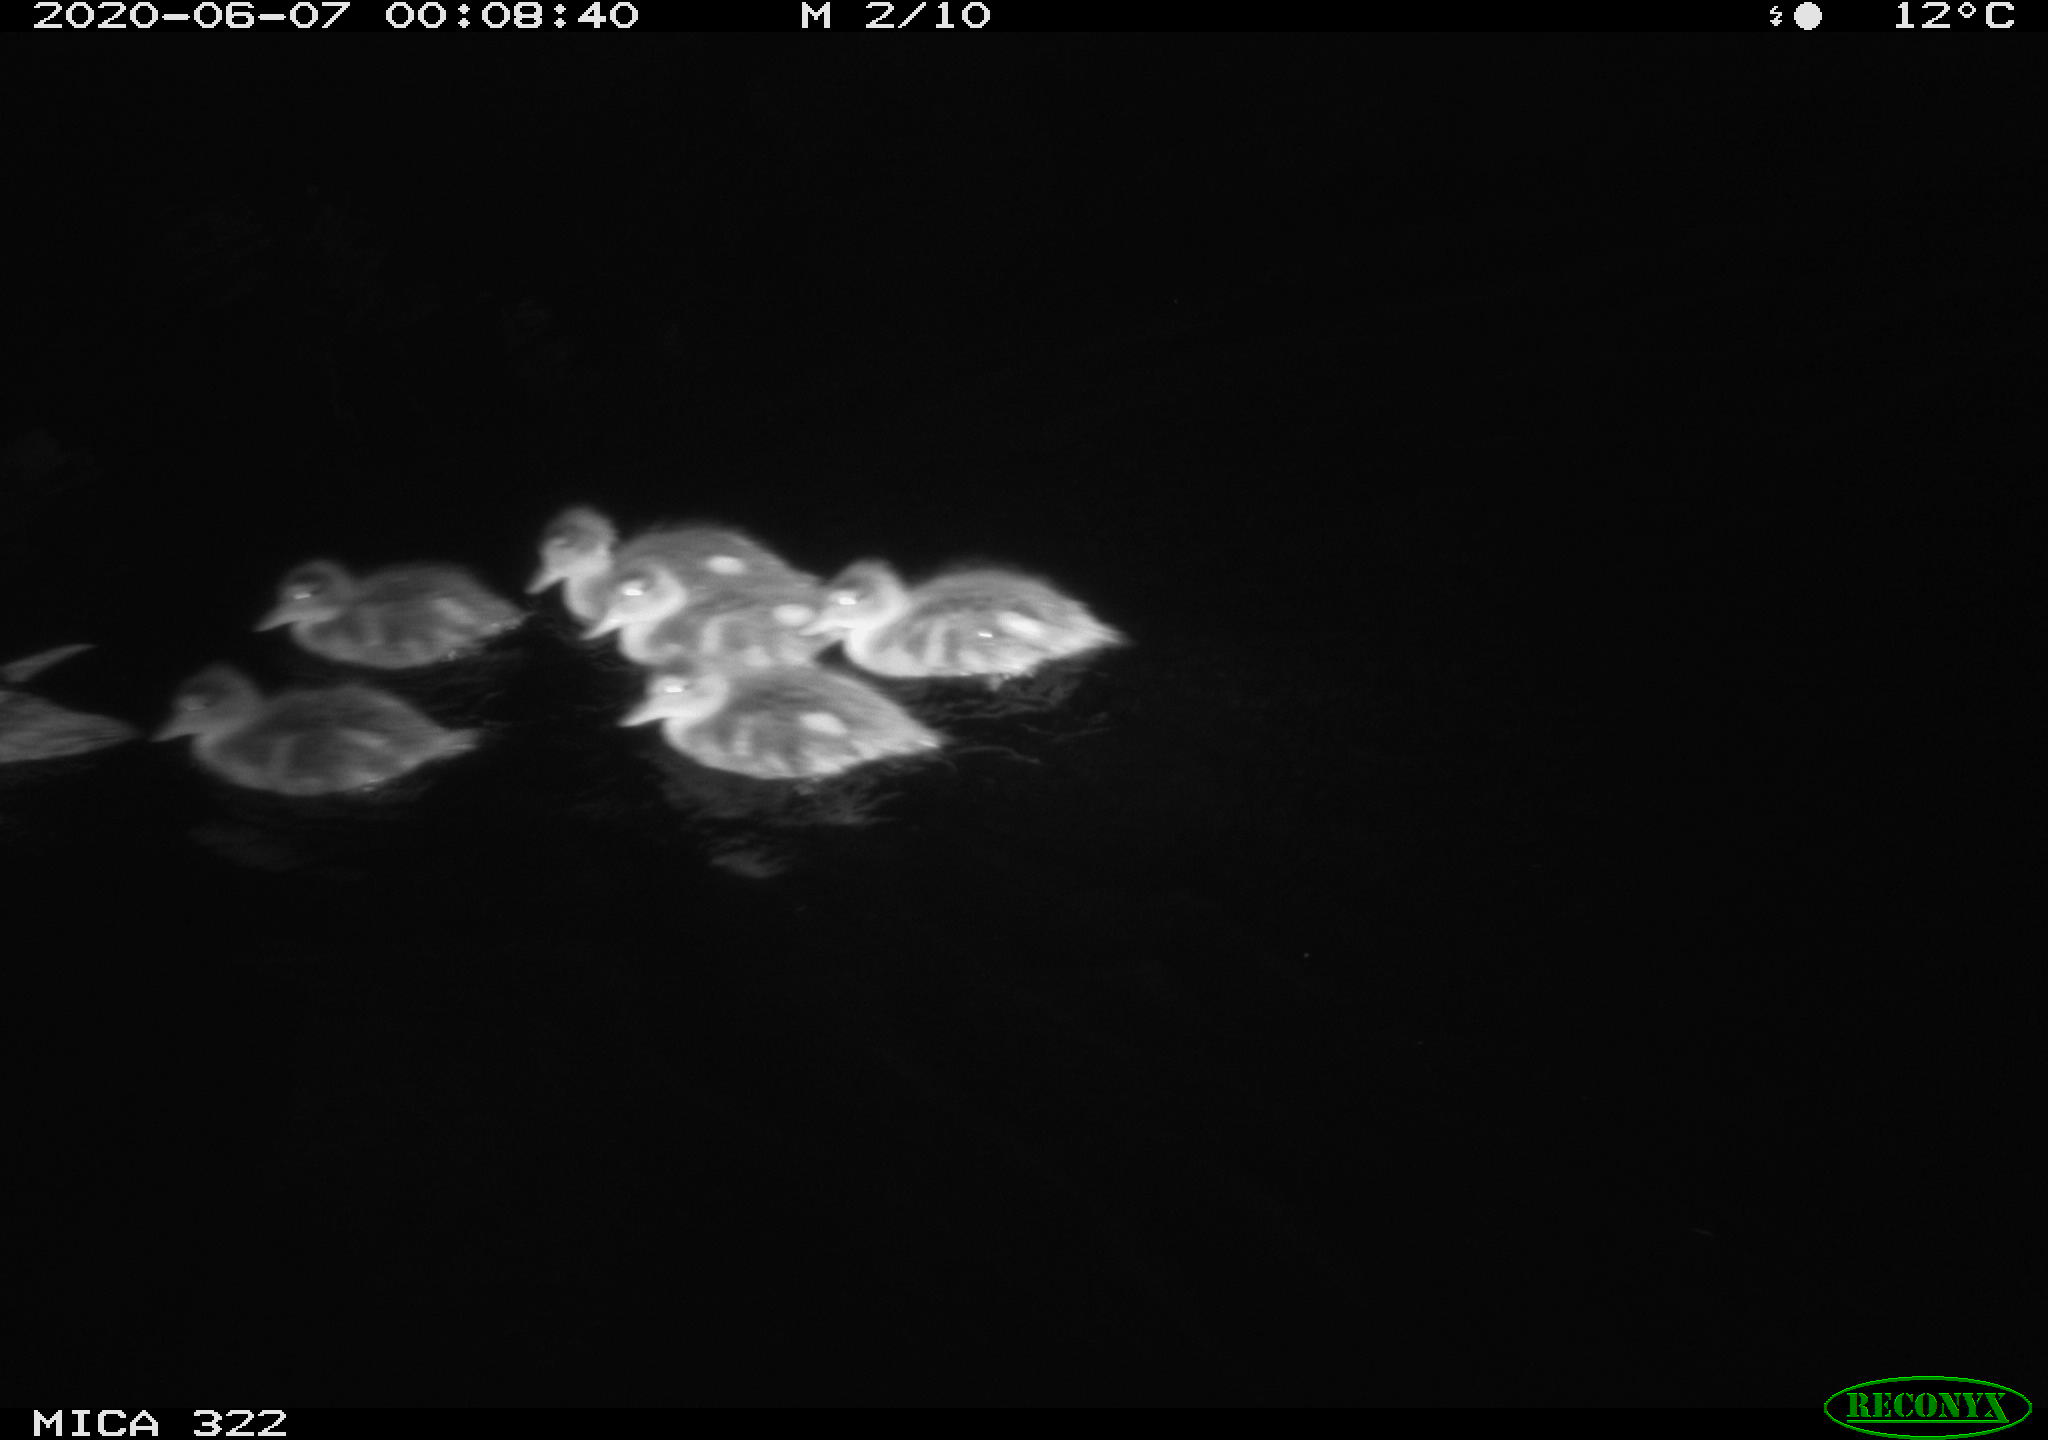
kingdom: Animalia
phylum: Chordata
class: Aves
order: Anseriformes
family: Anatidae
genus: Anas
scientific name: Anas platyrhynchos
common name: Mallard
